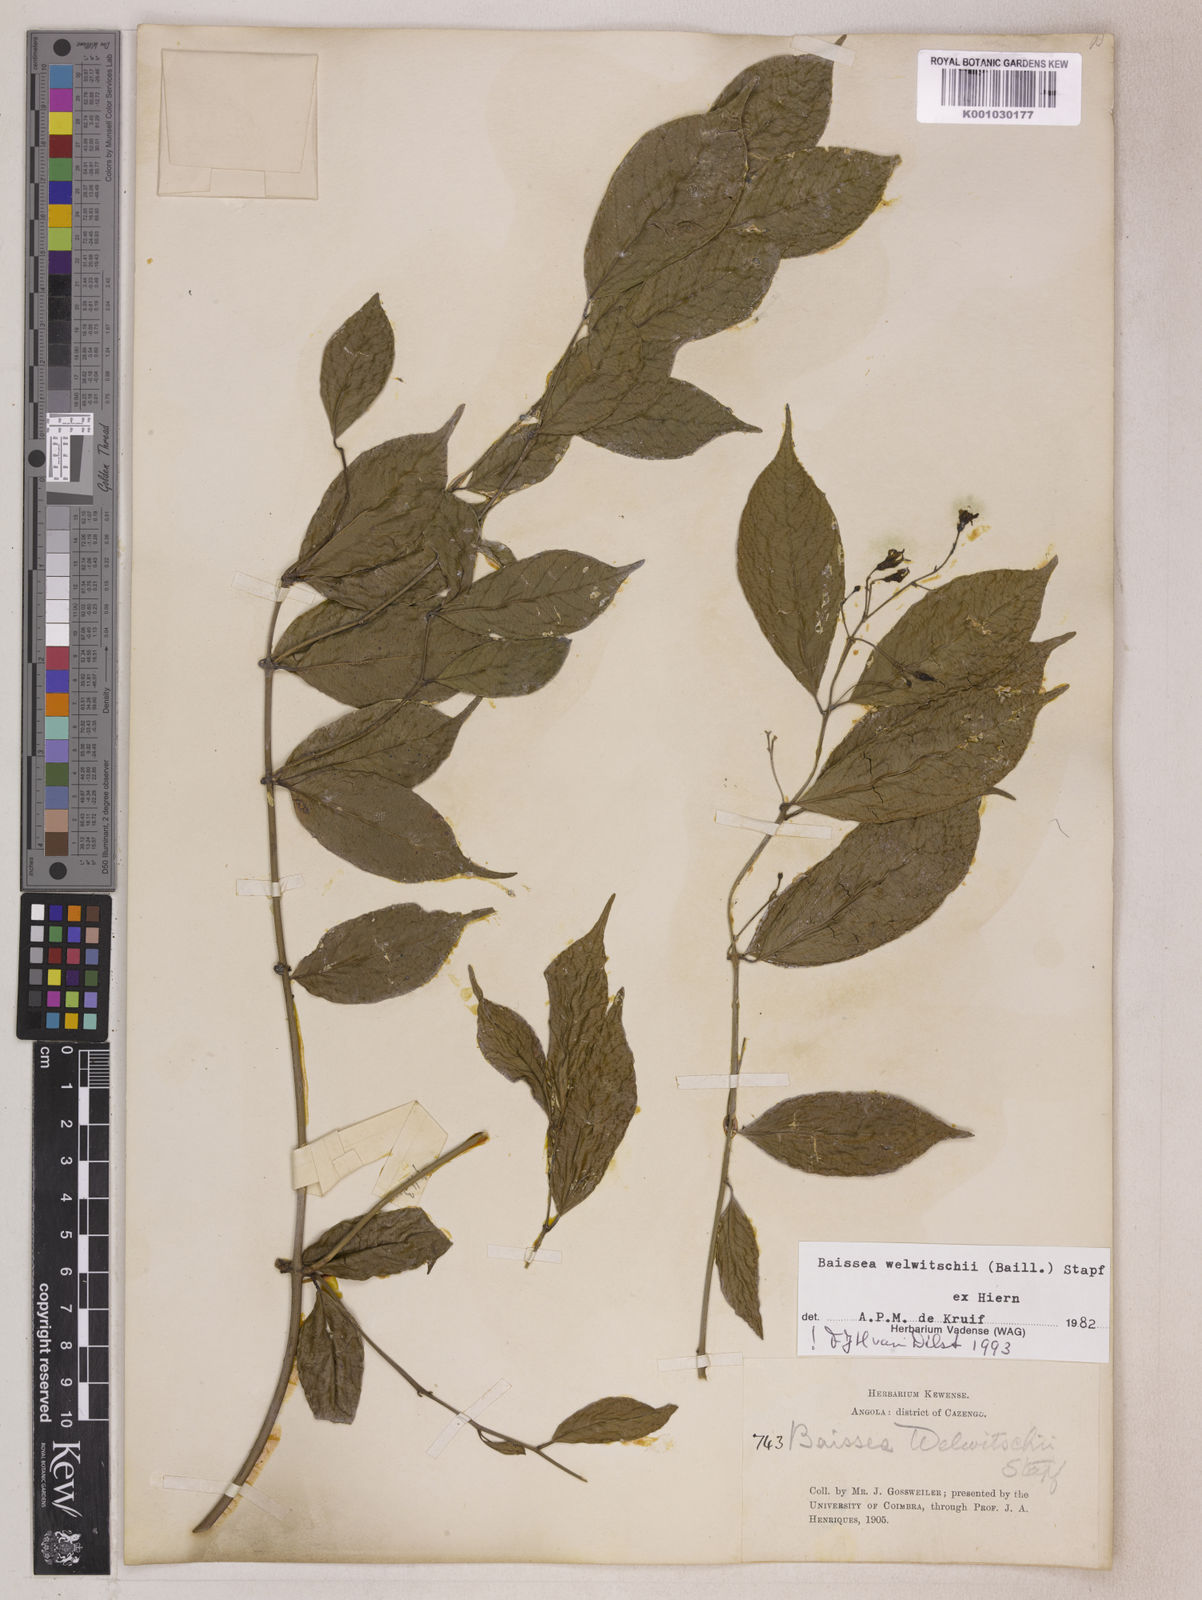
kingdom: Plantae
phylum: Tracheophyta
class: Magnoliopsida
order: Gentianales
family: Apocynaceae
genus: Baissea
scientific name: Baissea welwitschii
